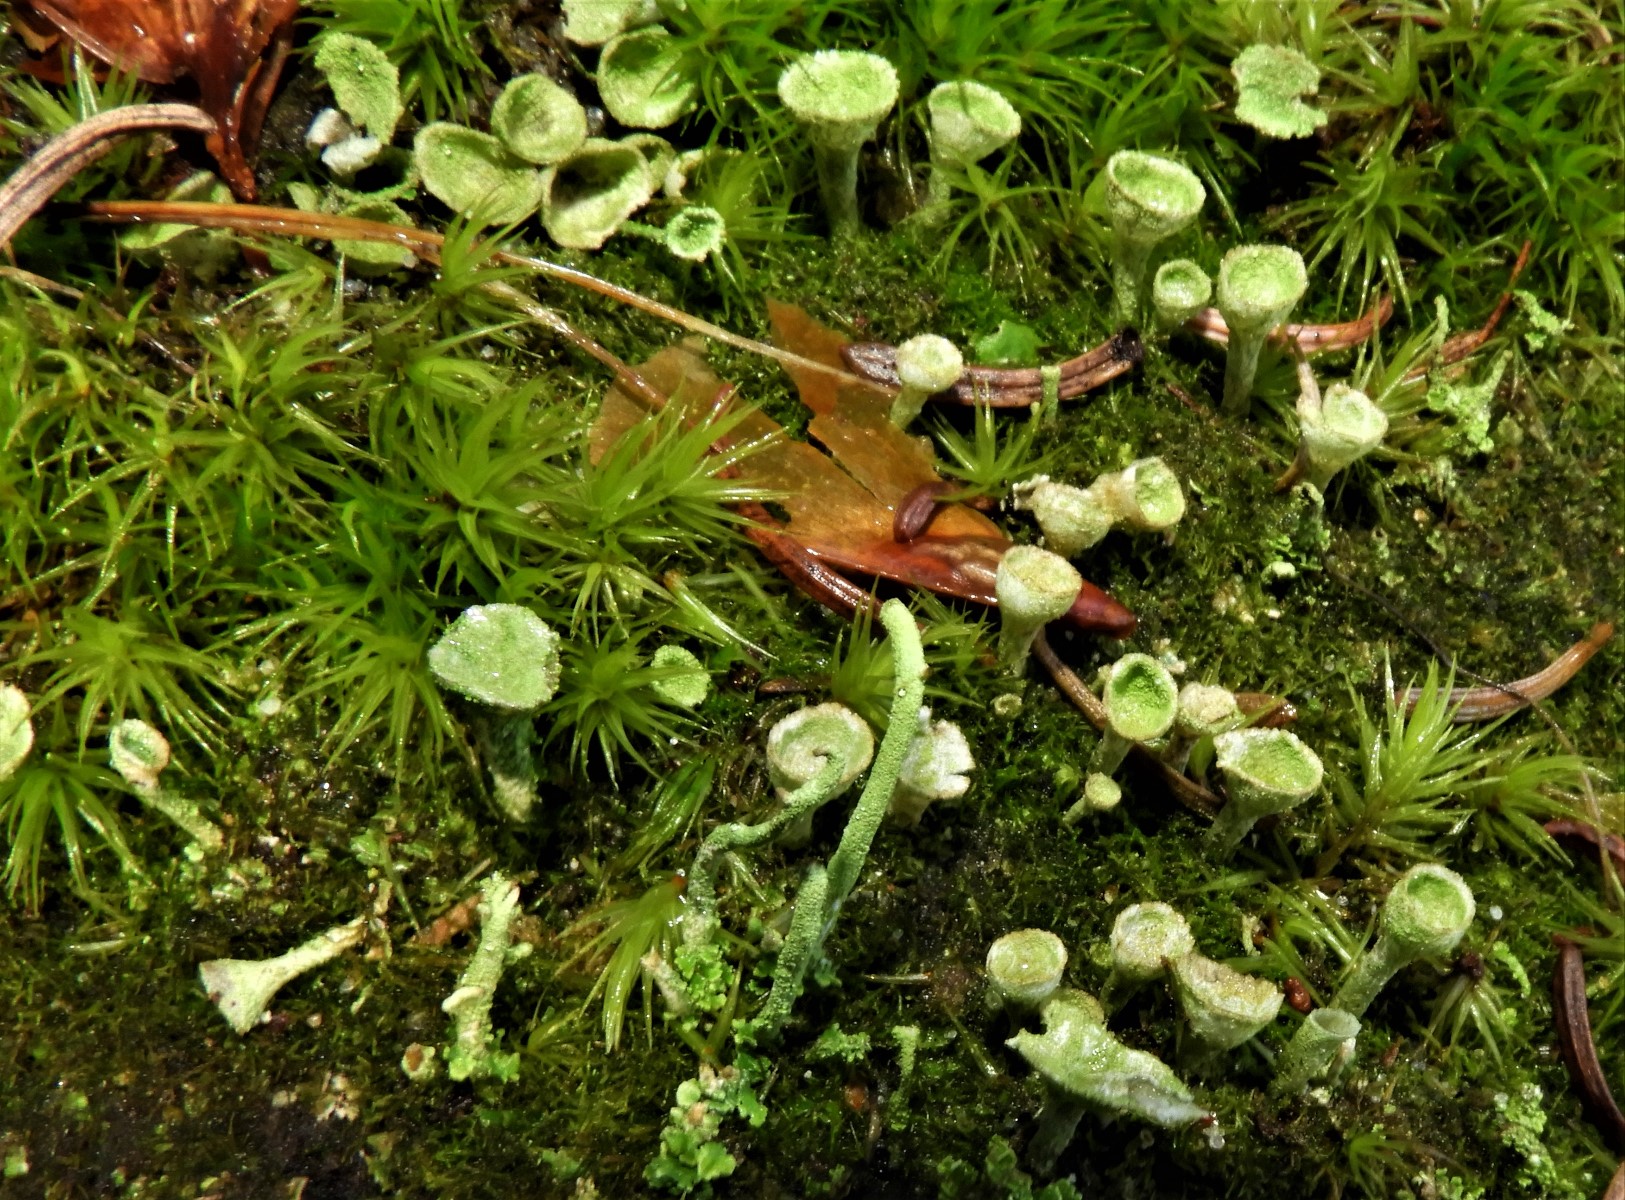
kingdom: Fungi
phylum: Ascomycota
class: Lecanoromycetes
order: Lecanorales
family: Cladoniaceae
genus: Cladonia
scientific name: Cladonia
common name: brungrøn bægerlav
